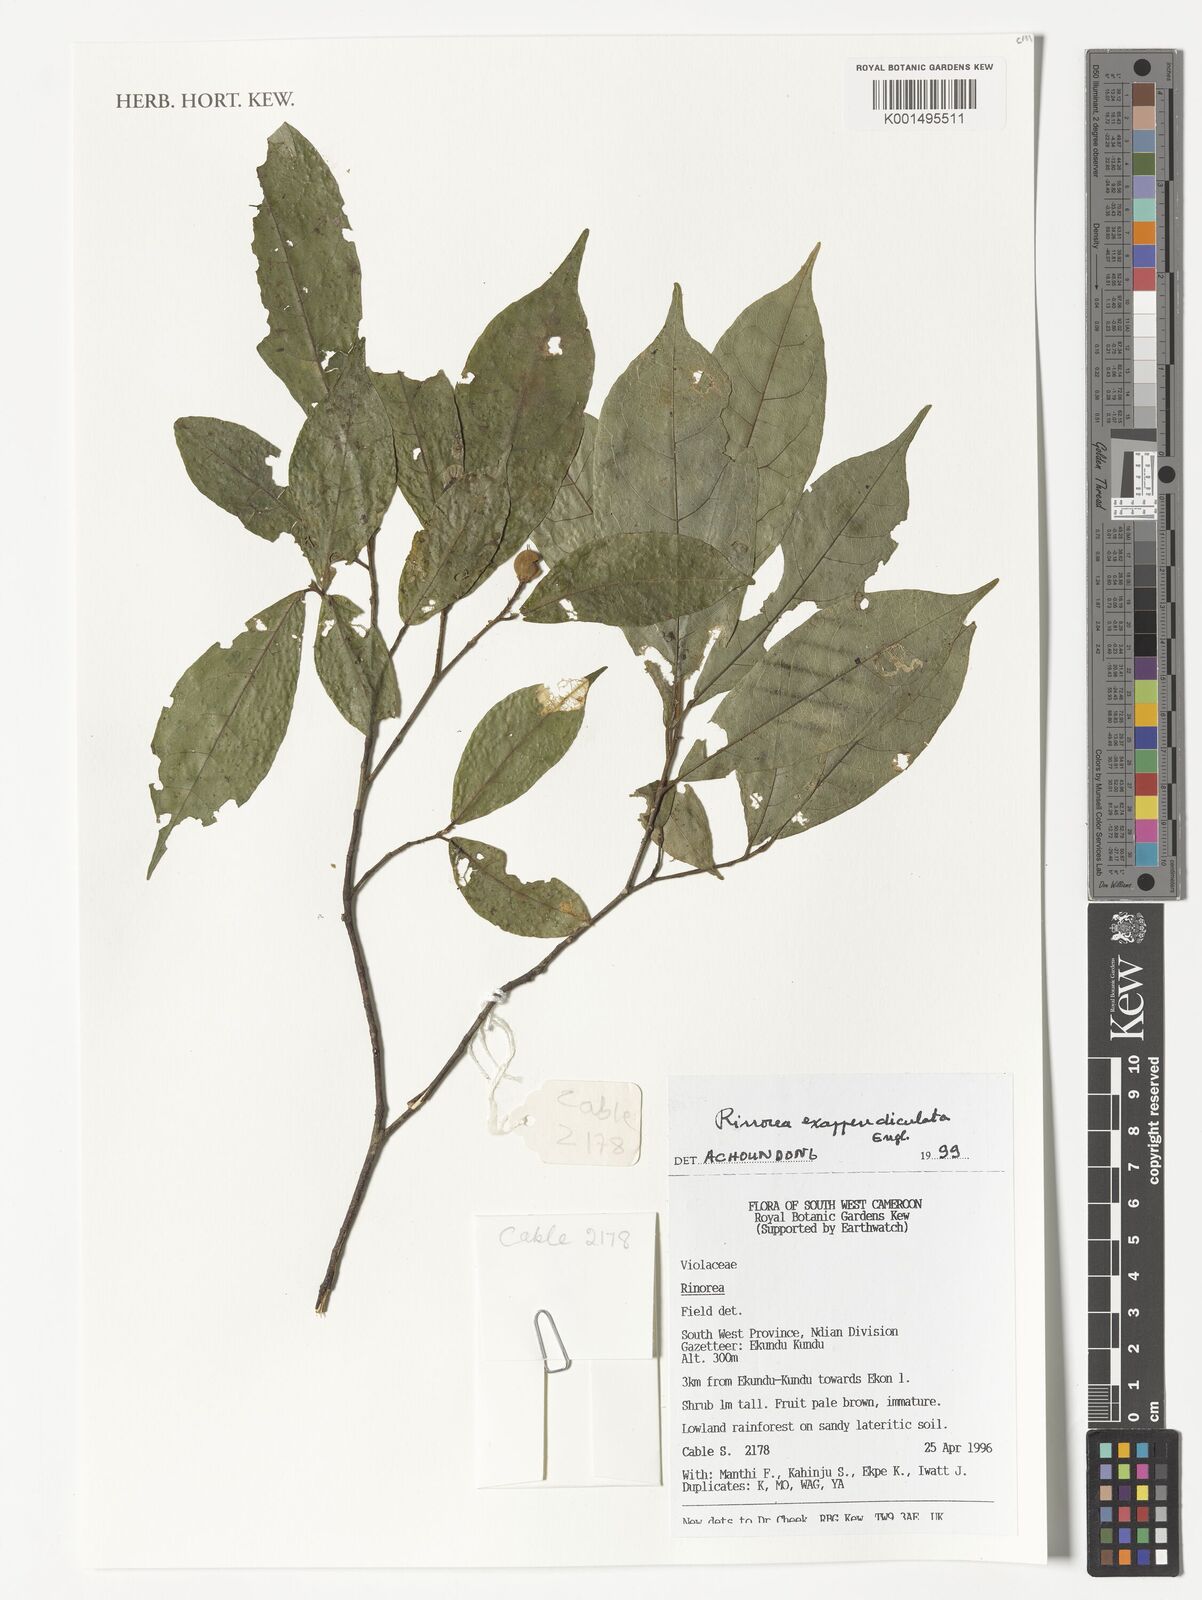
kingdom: Plantae
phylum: Tracheophyta
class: Magnoliopsida
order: Malpighiales
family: Violaceae
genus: Rinorea
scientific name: Rinorea exappendiculata
